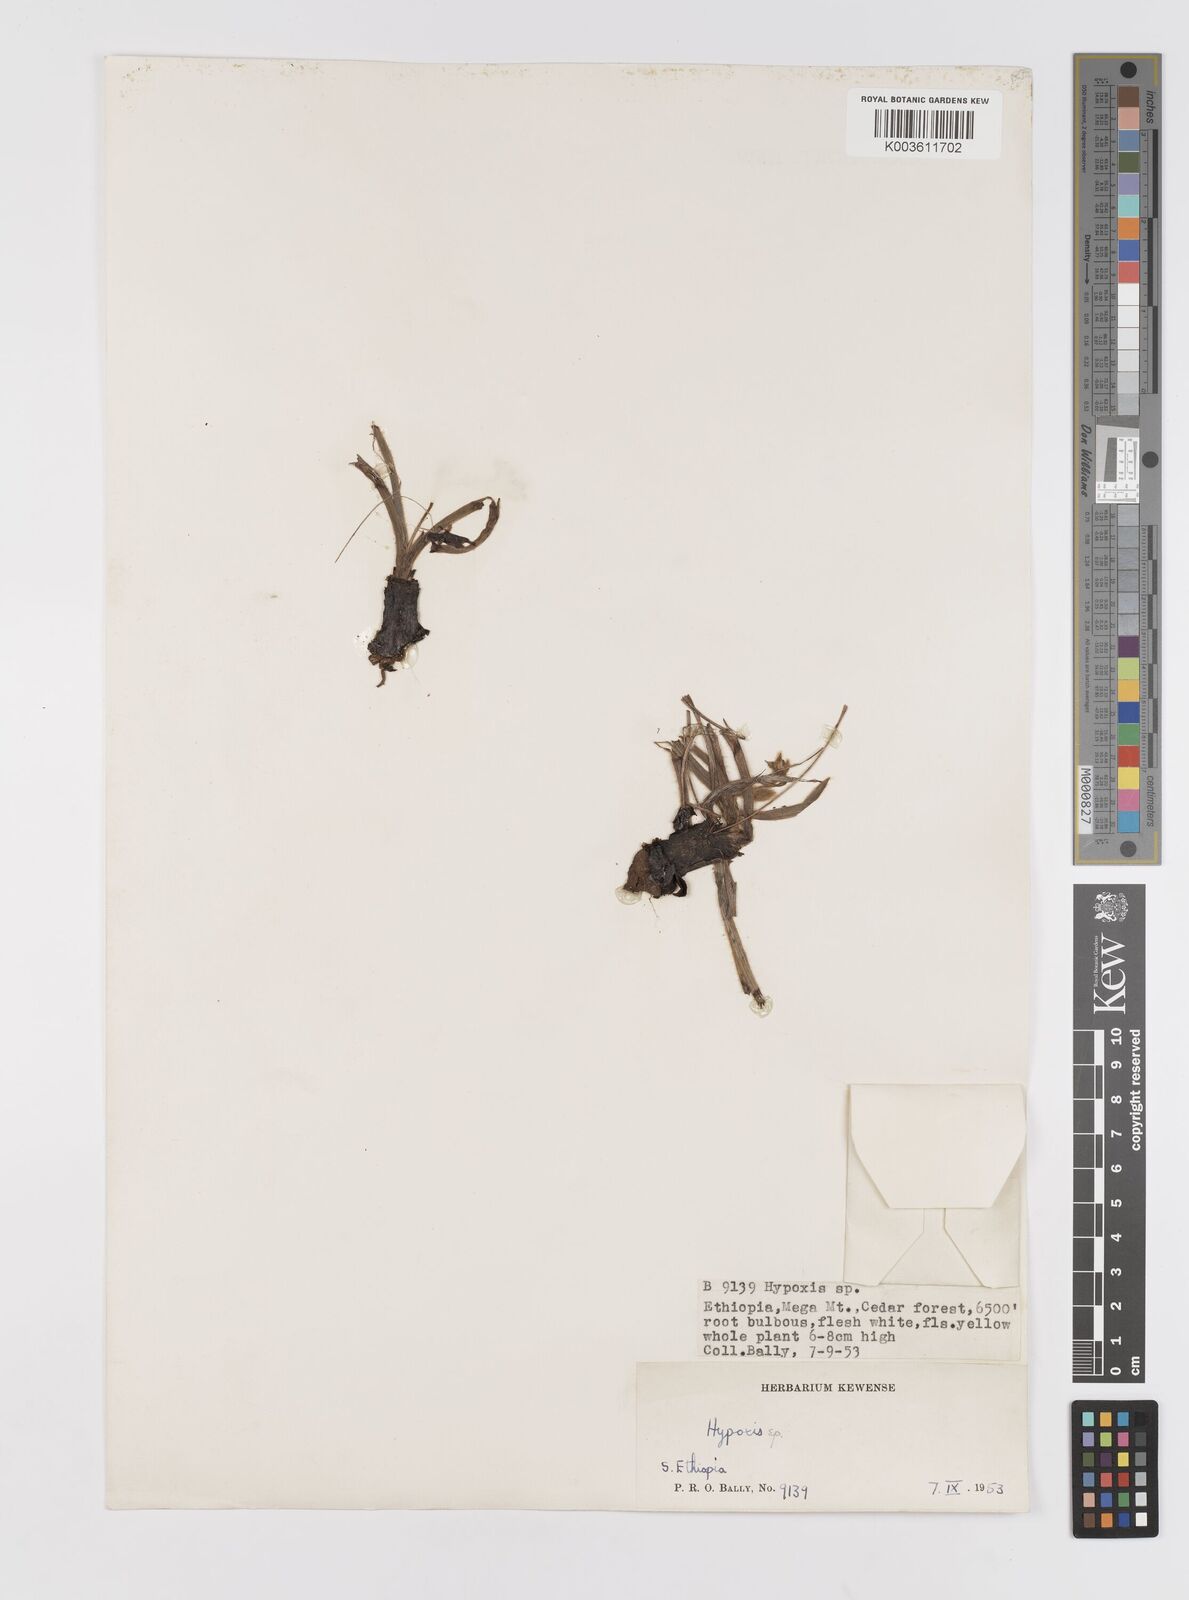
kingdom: Plantae
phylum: Tracheophyta
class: Liliopsida
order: Asparagales
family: Hypoxidaceae
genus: Hypoxis
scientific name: Hypoxis
